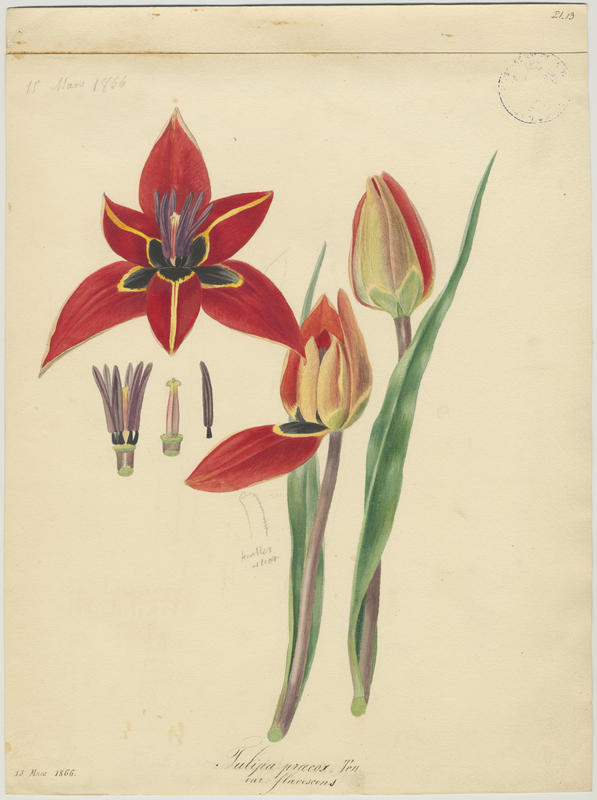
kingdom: Plantae
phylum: Tracheophyta
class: Liliopsida
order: Liliales
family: Liliaceae
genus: Tulipa
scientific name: Tulipa agenensis
